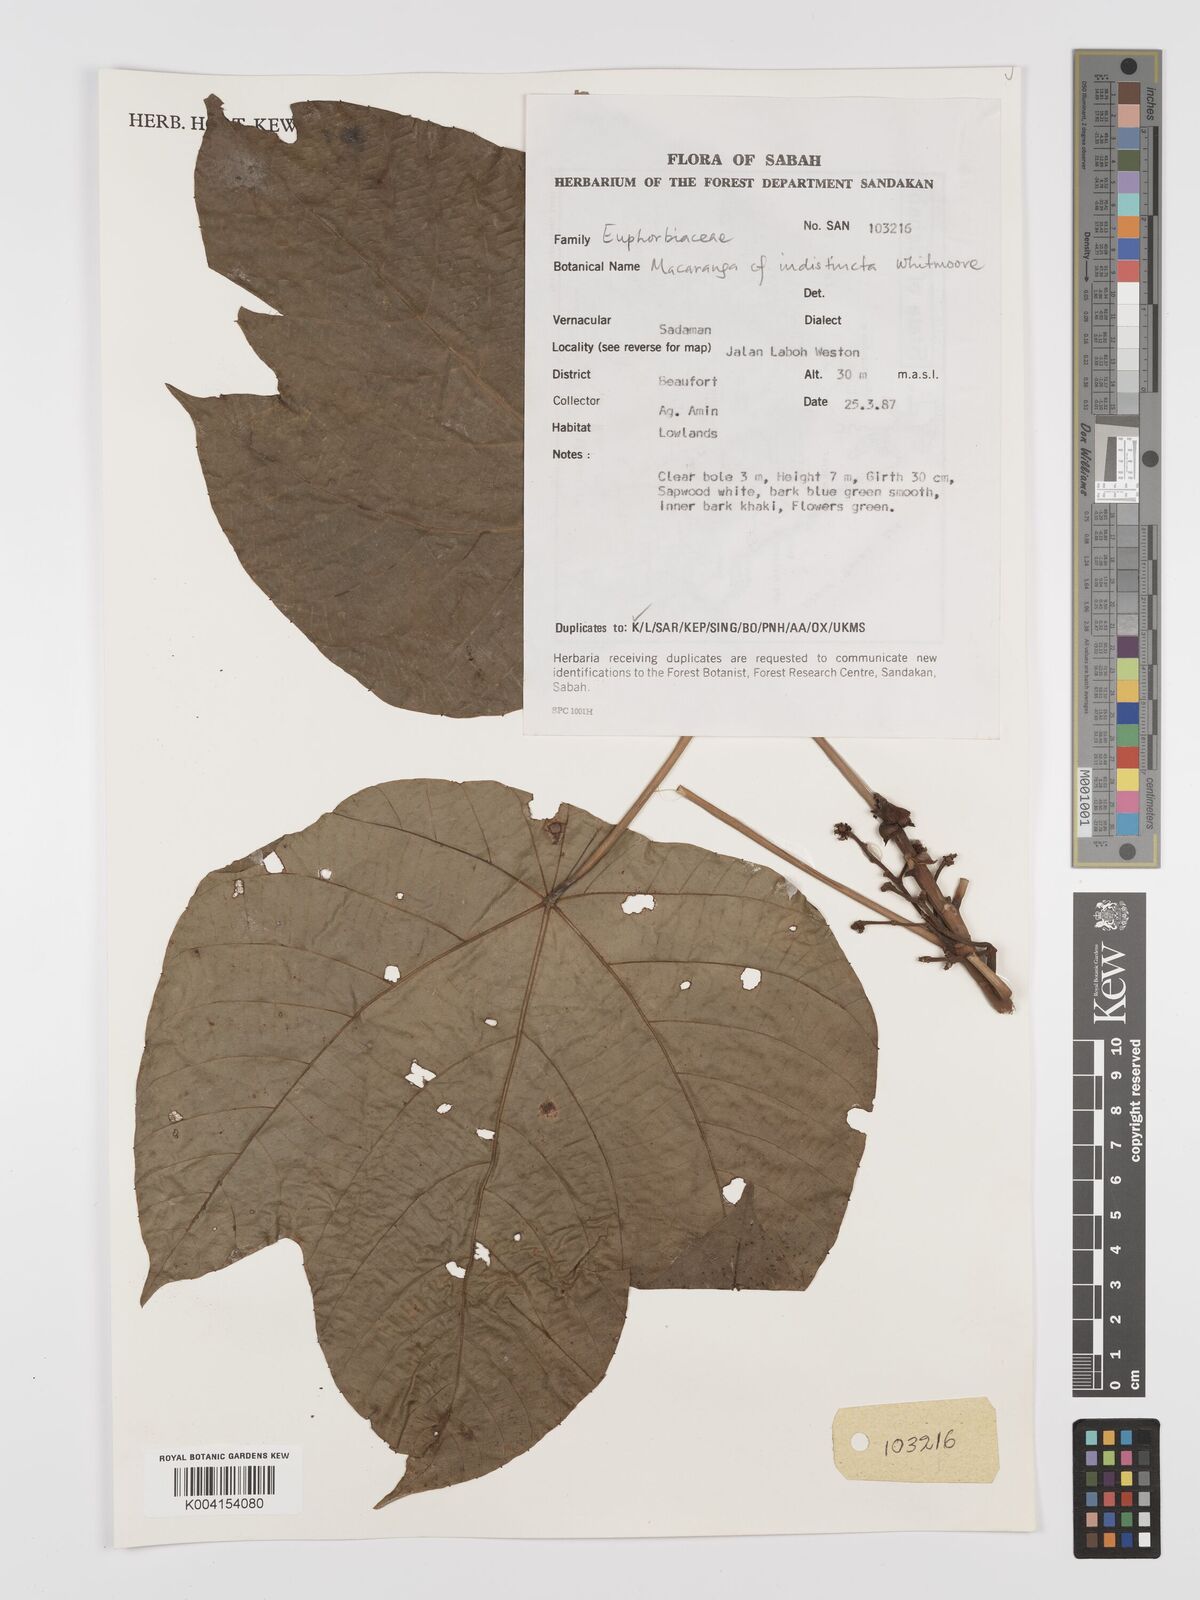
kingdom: Plantae
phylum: Tracheophyta
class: Magnoliopsida
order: Malpighiales
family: Euphorbiaceae
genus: Macaranga
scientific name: Macaranga indistincta
